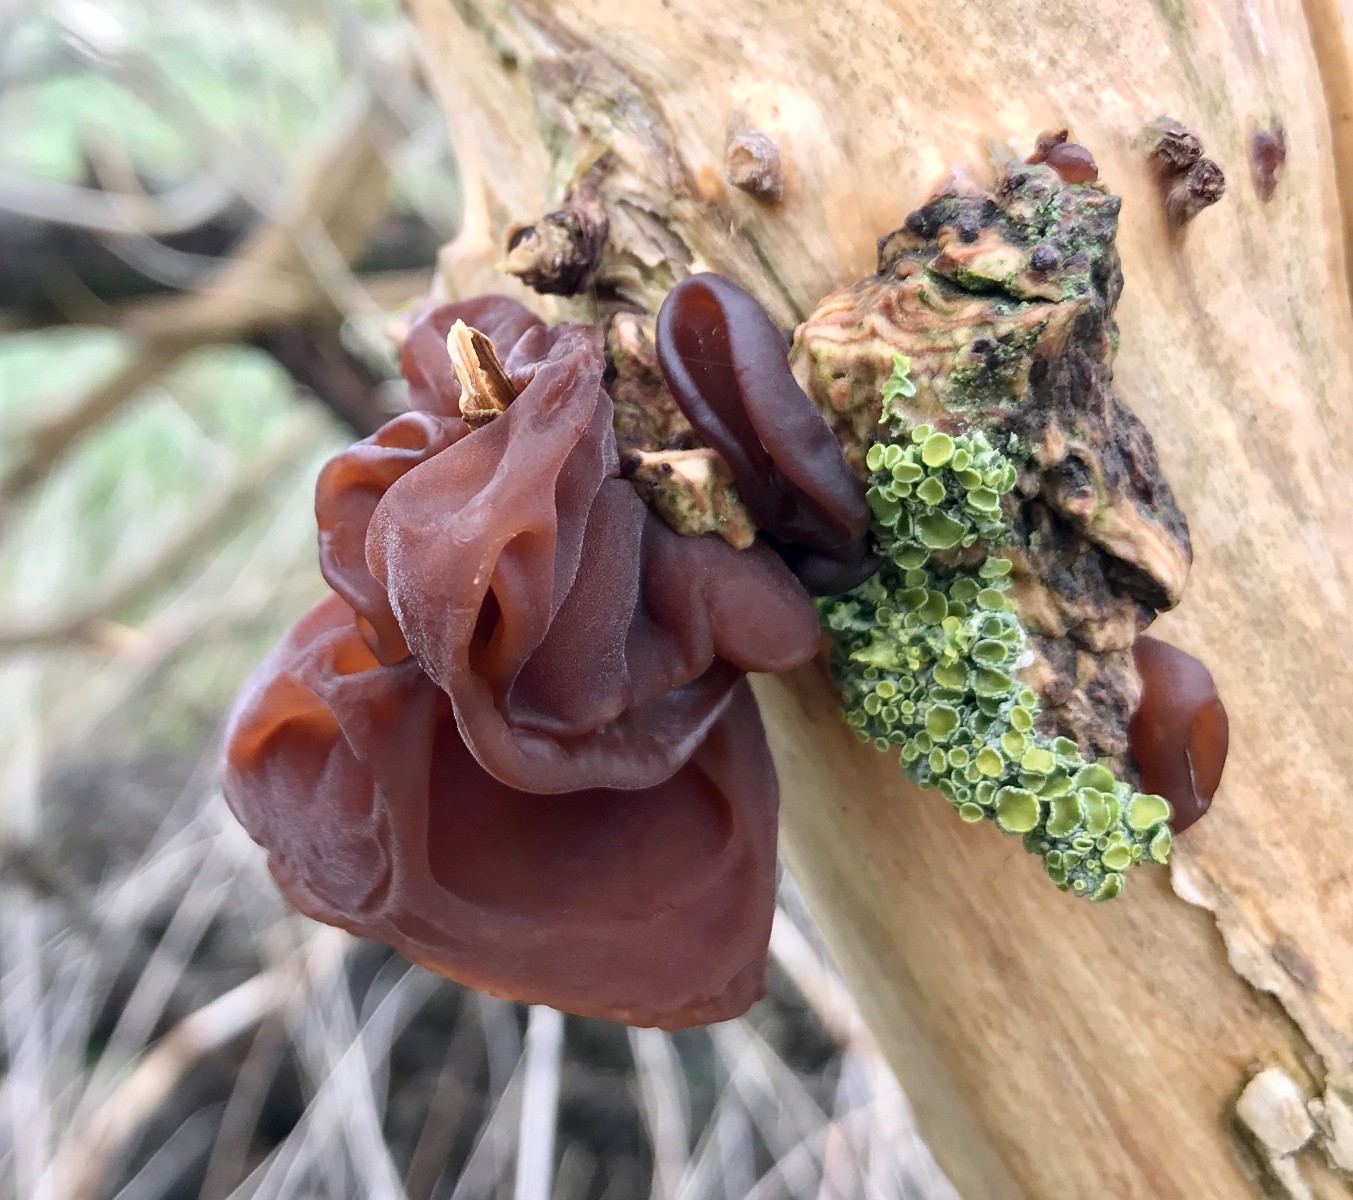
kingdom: Fungi
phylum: Basidiomycota
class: Agaricomycetes
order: Auriculariales
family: Auriculariaceae
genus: Auricularia
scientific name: Auricularia auricula-judae
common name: almindelig judasøre
